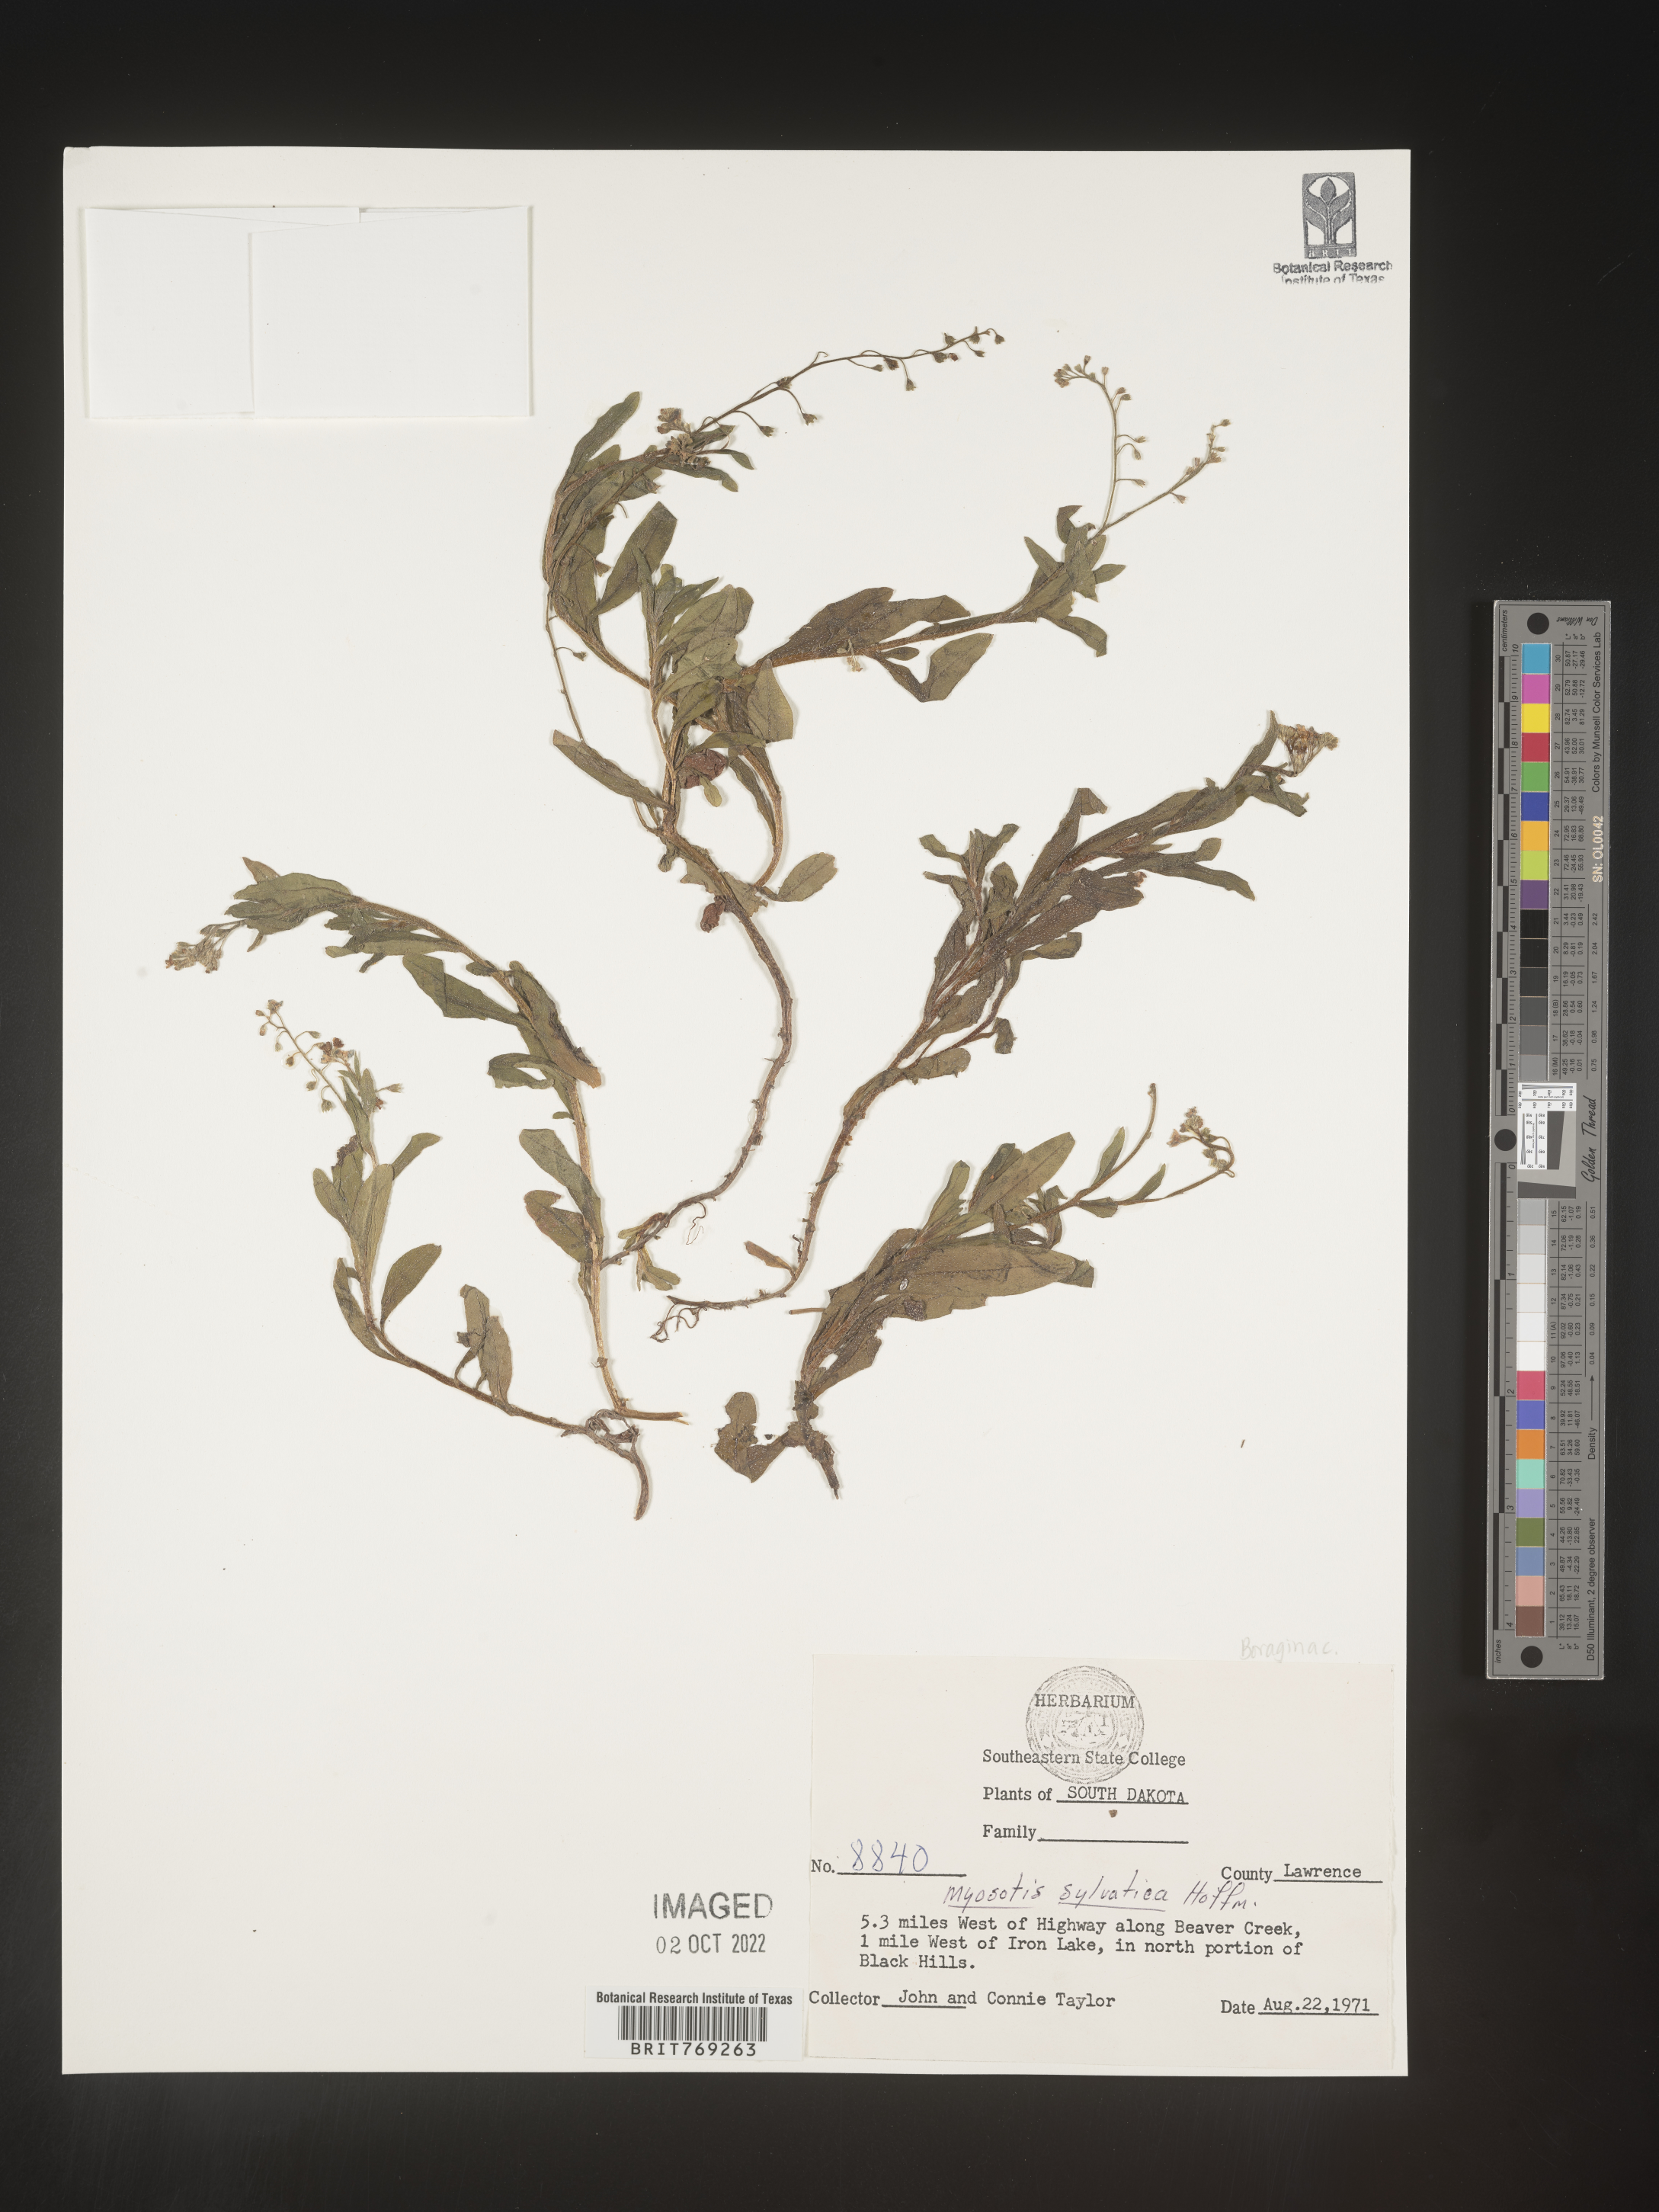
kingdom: Plantae
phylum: Tracheophyta
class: Magnoliopsida
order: Boraginales
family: Boraginaceae
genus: Myosotis
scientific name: Myosotis sylvatica
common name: Wood forget-me-not
